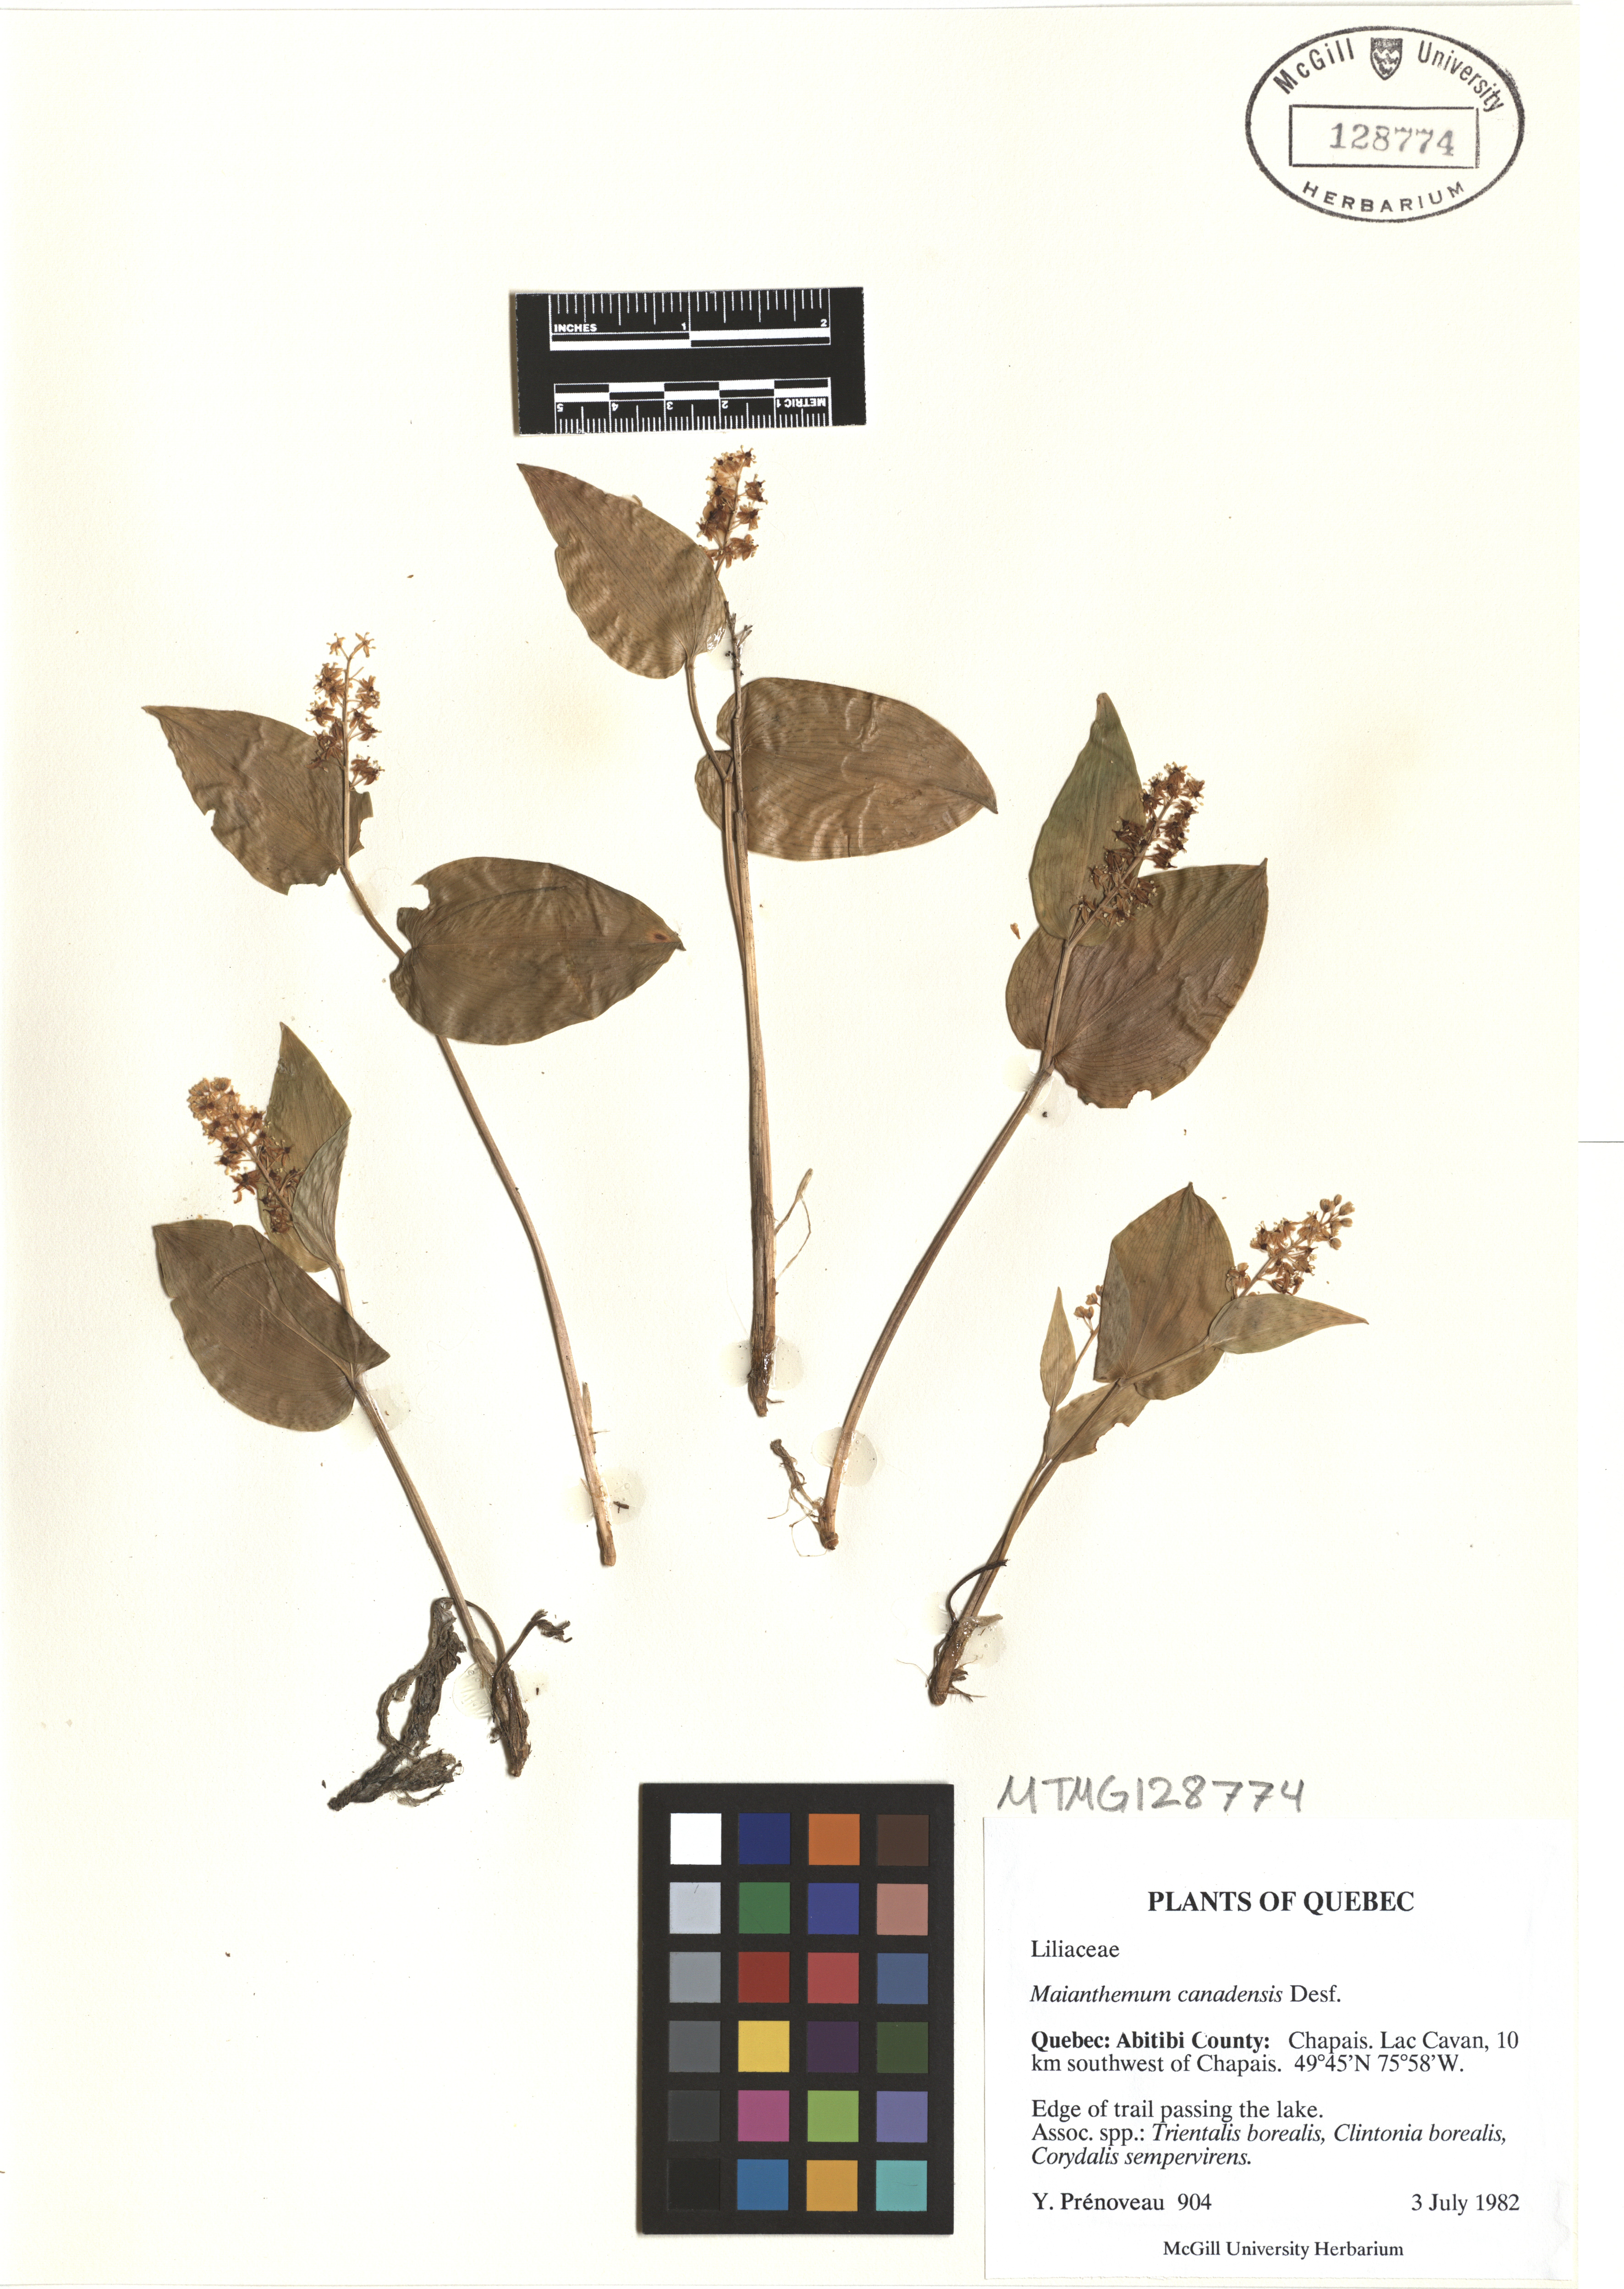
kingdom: Plantae
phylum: Tracheophyta
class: Liliopsida
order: Asparagales
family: Asparagaceae
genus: Maianthemum
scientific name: Maianthemum canadense
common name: False lily-of-the-valley
